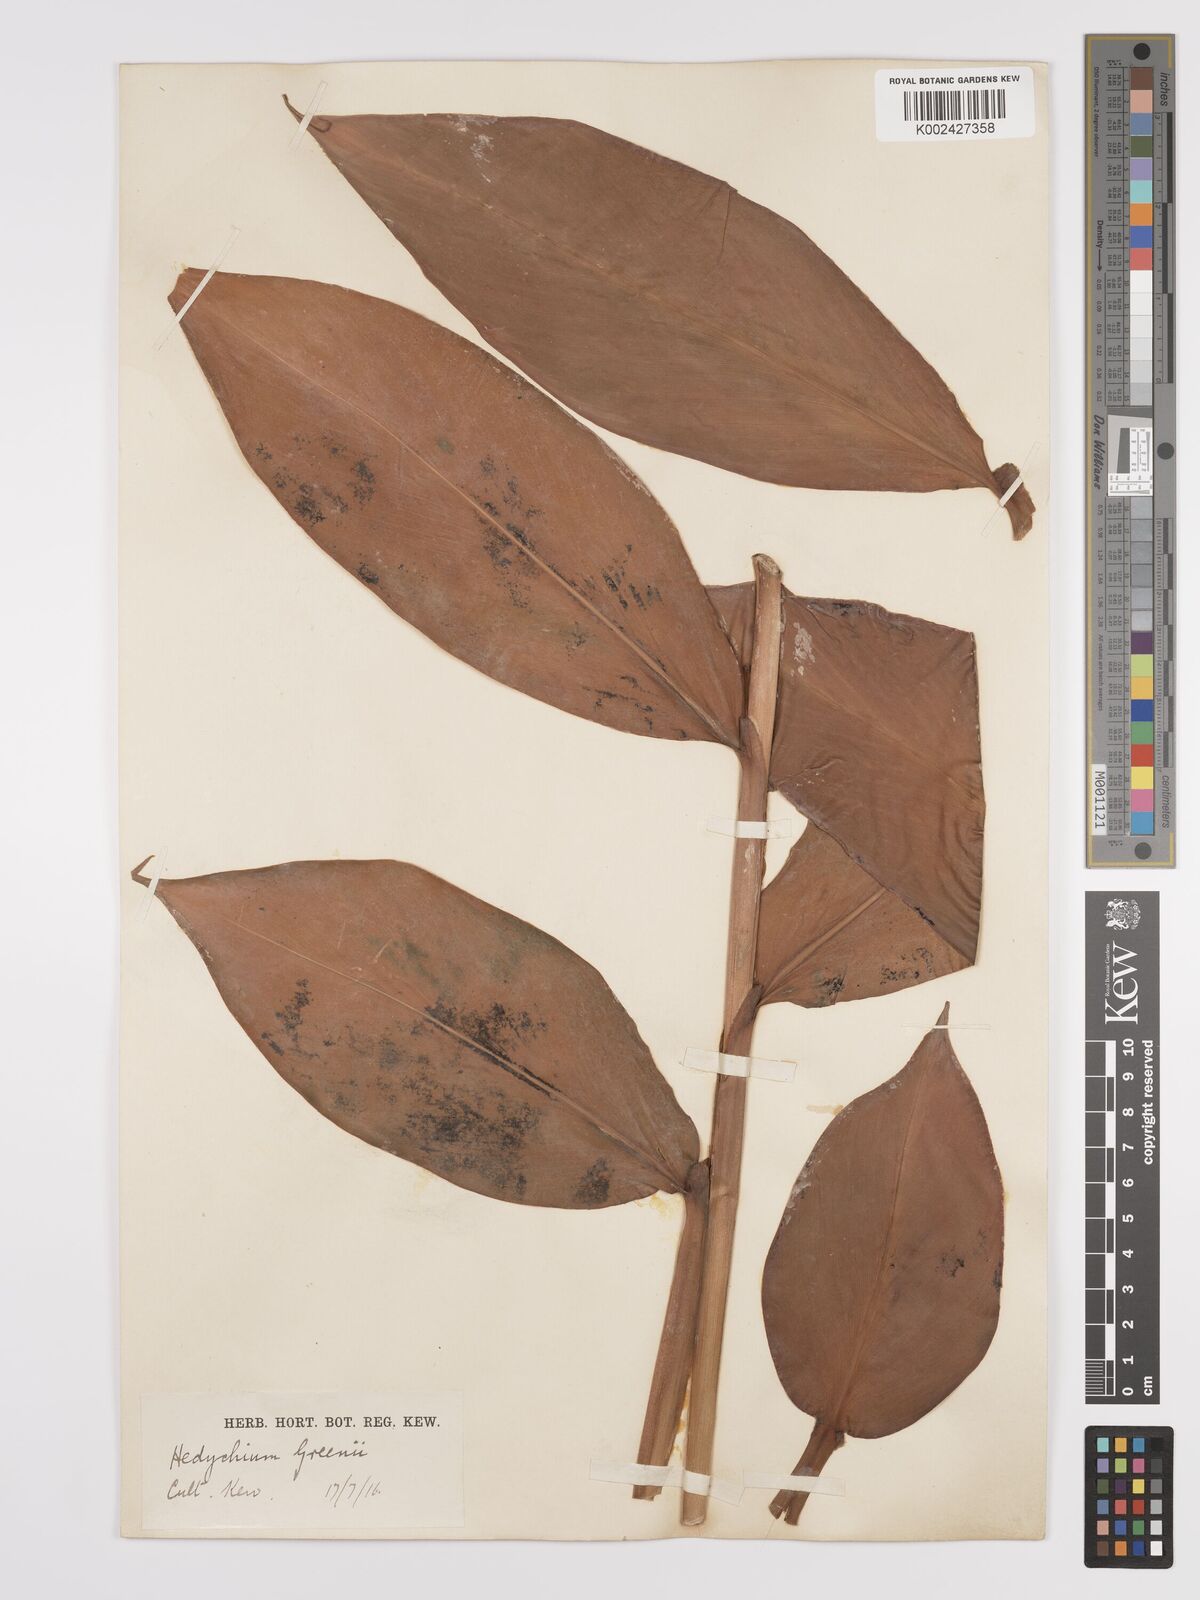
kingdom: Plantae
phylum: Tracheophyta
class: Liliopsida
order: Zingiberales
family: Zingiberaceae
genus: Hedychium
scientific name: Hedychium greenii
